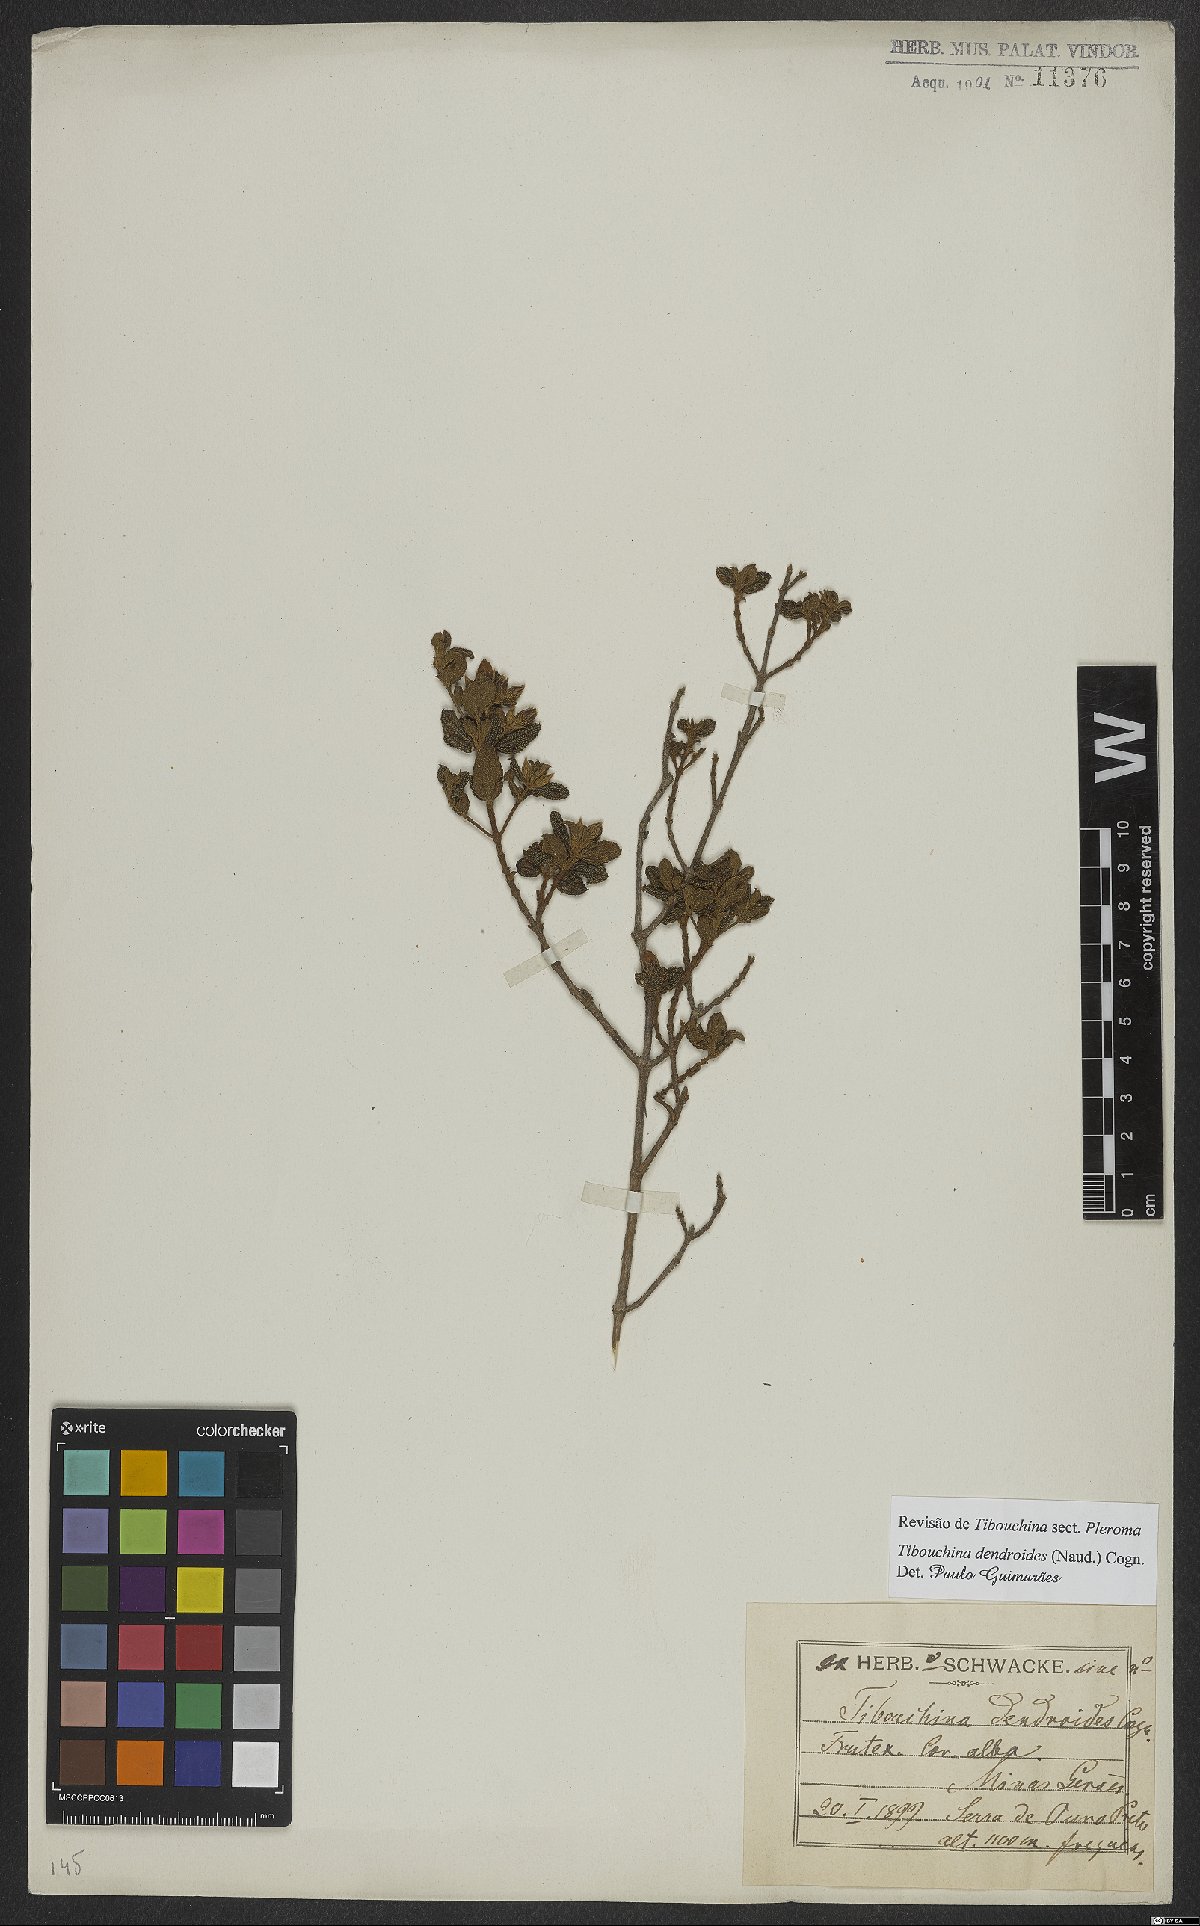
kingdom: Plantae
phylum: Tracheophyta
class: Magnoliopsida
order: Myrtales
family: Melastomataceae
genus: Pleroma
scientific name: Pleroma dendroides
